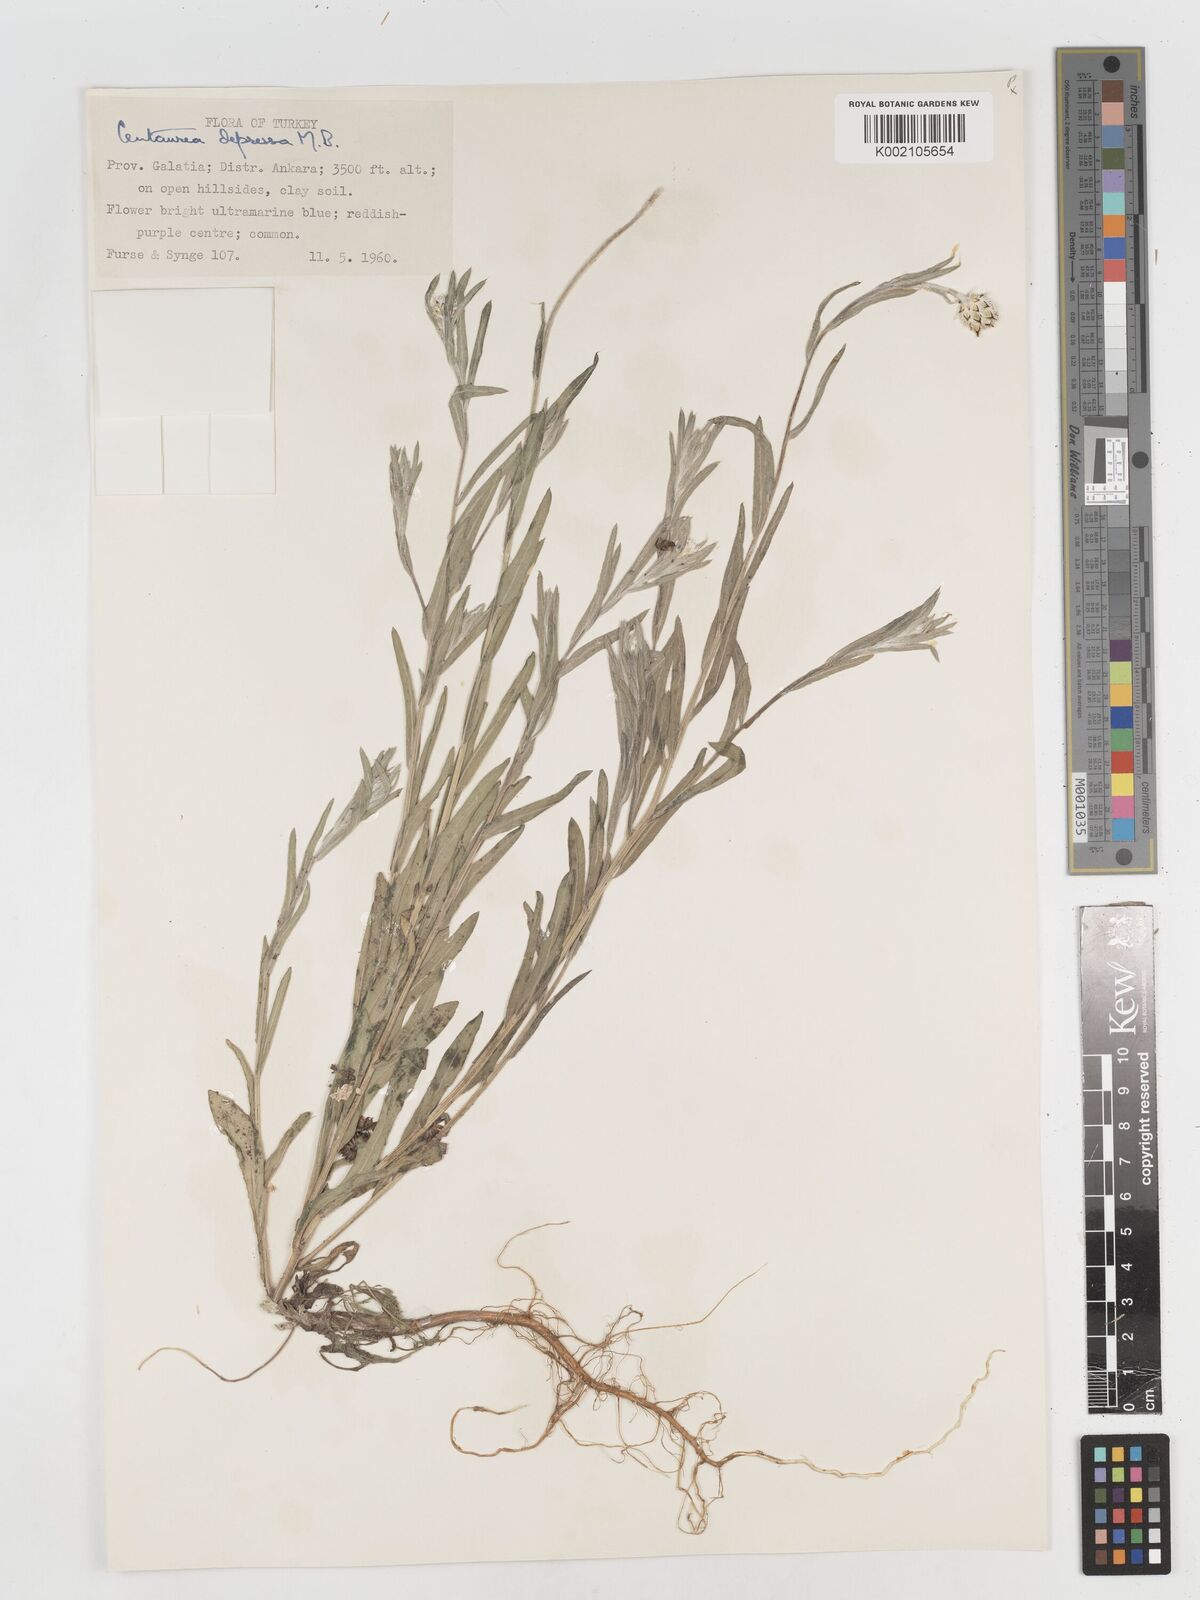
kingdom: Plantae
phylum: Tracheophyta
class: Magnoliopsida
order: Asterales
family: Asteraceae
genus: Centaurea
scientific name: Centaurea depressa
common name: Iranian knapweed
